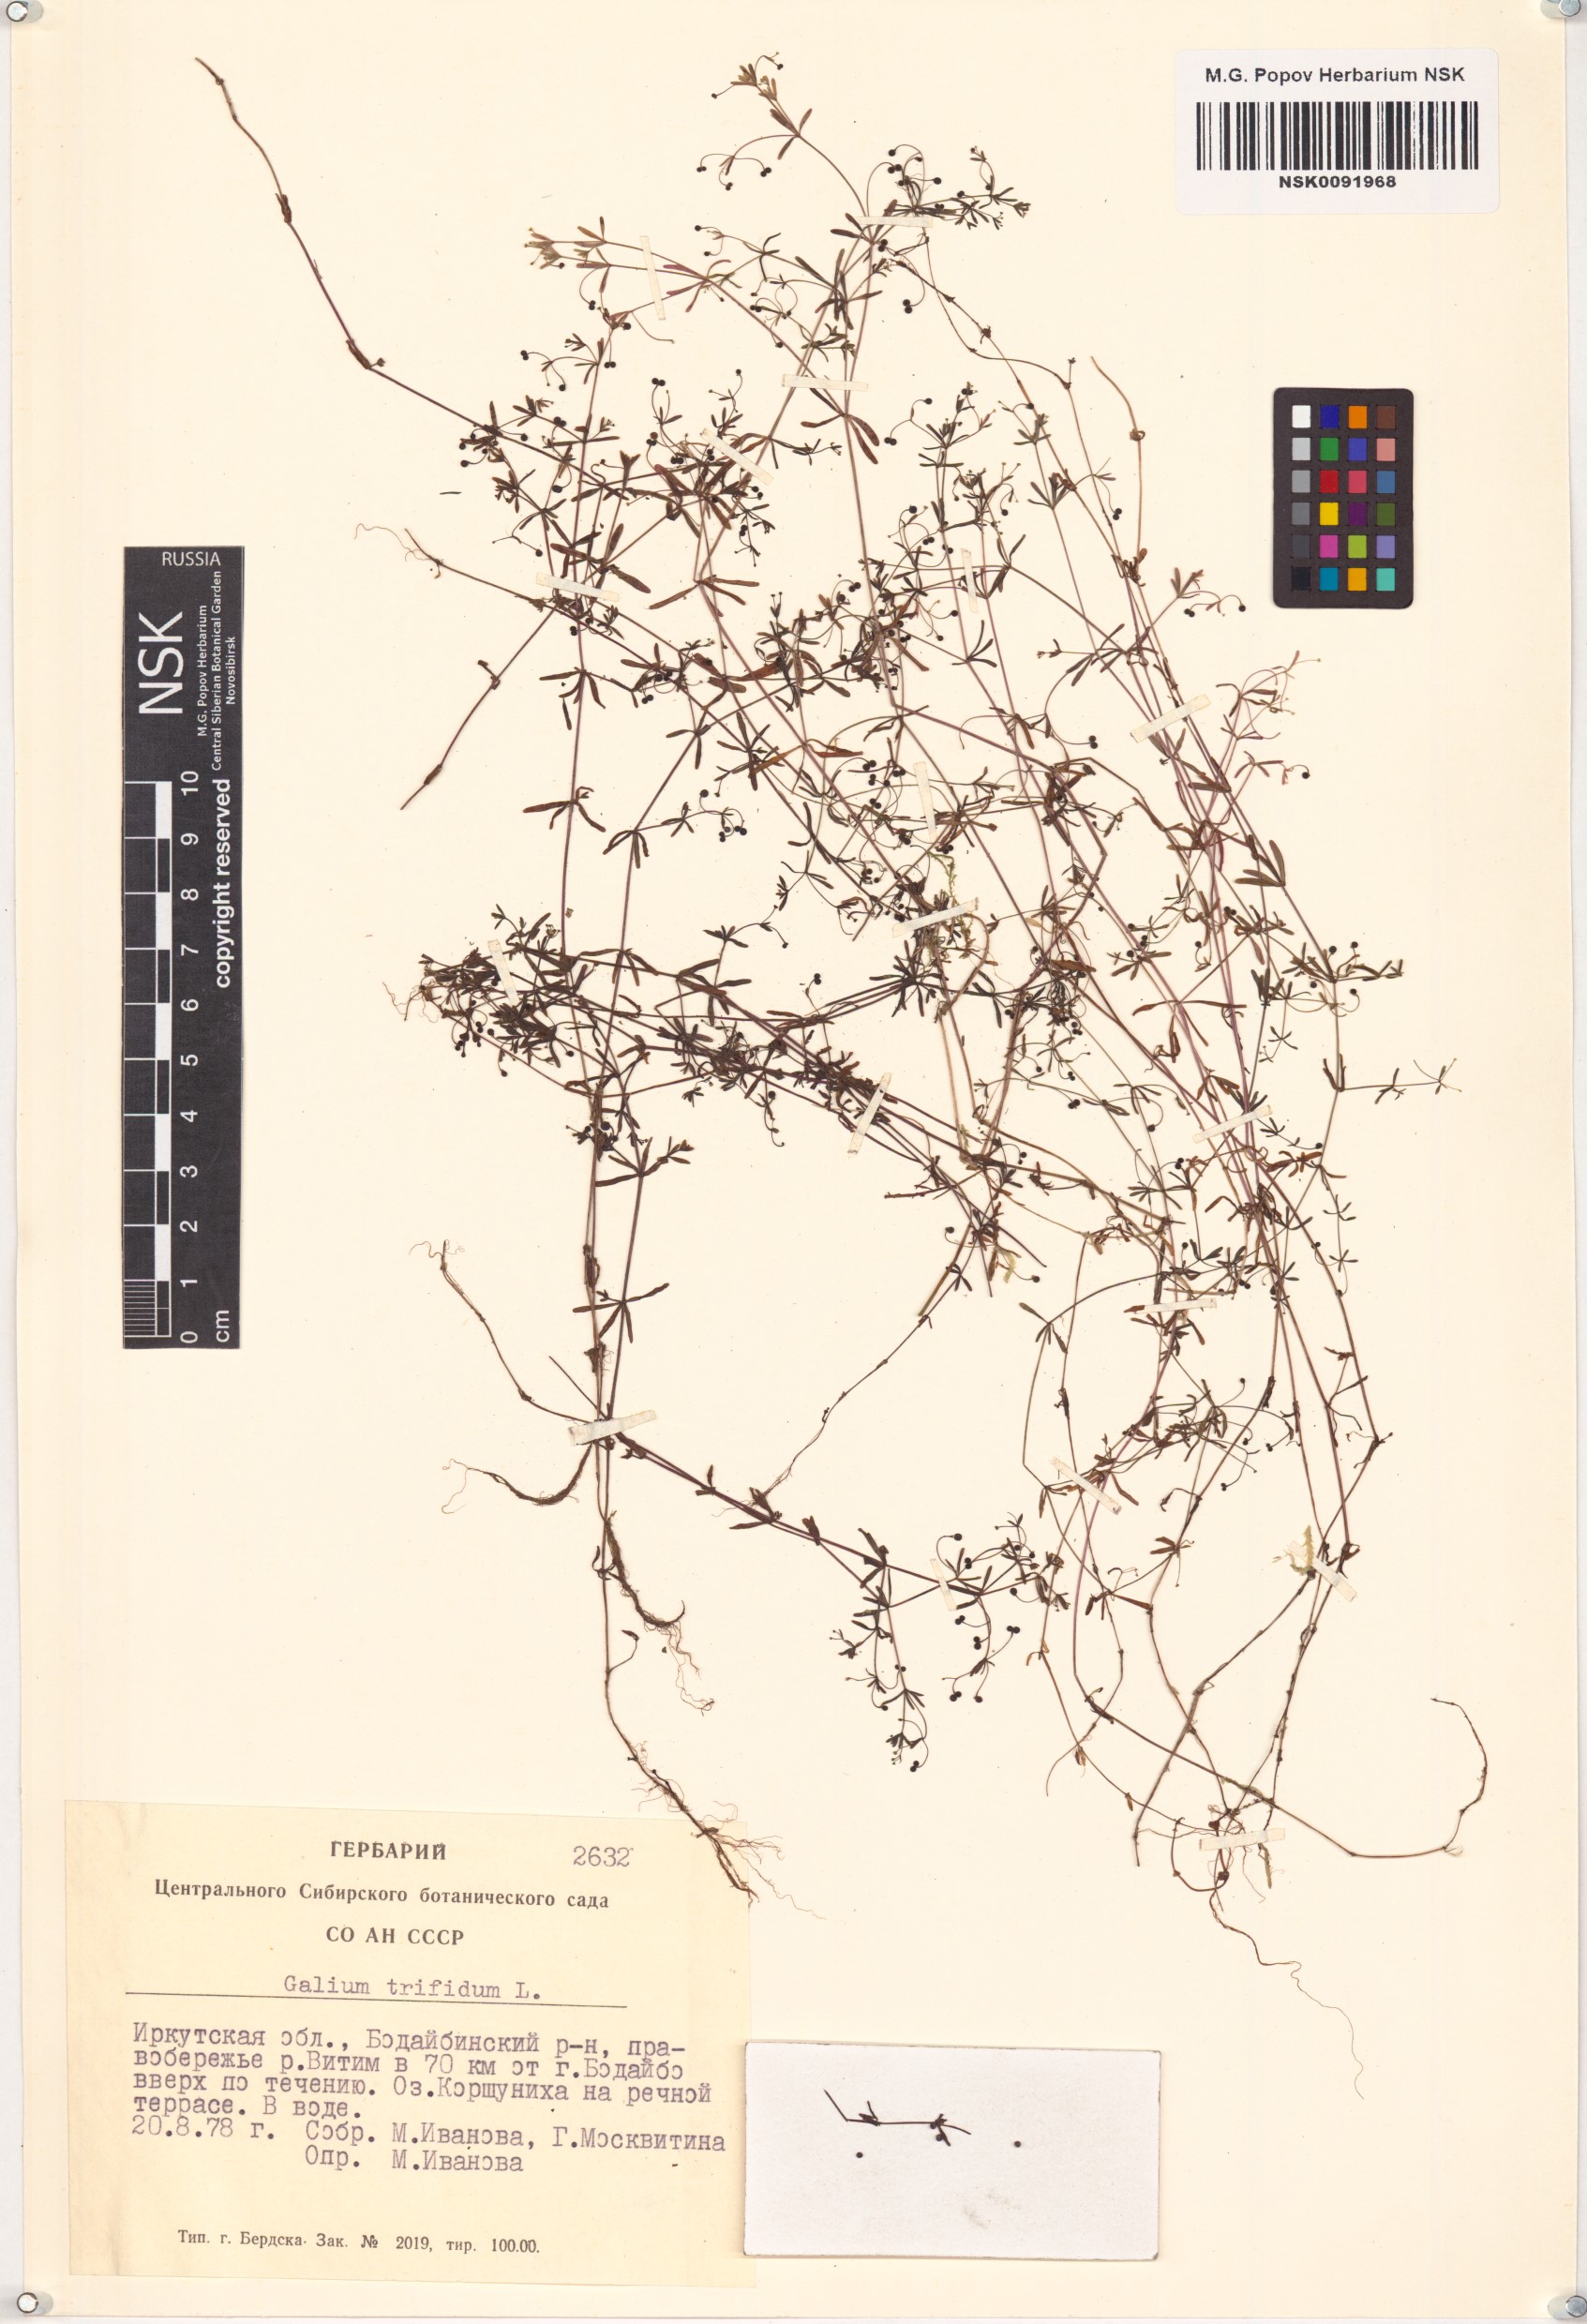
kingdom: Plantae
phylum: Tracheophyta
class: Magnoliopsida
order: Gentianales
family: Rubiaceae
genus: Galium
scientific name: Galium trifidum
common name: Small bedstraw
